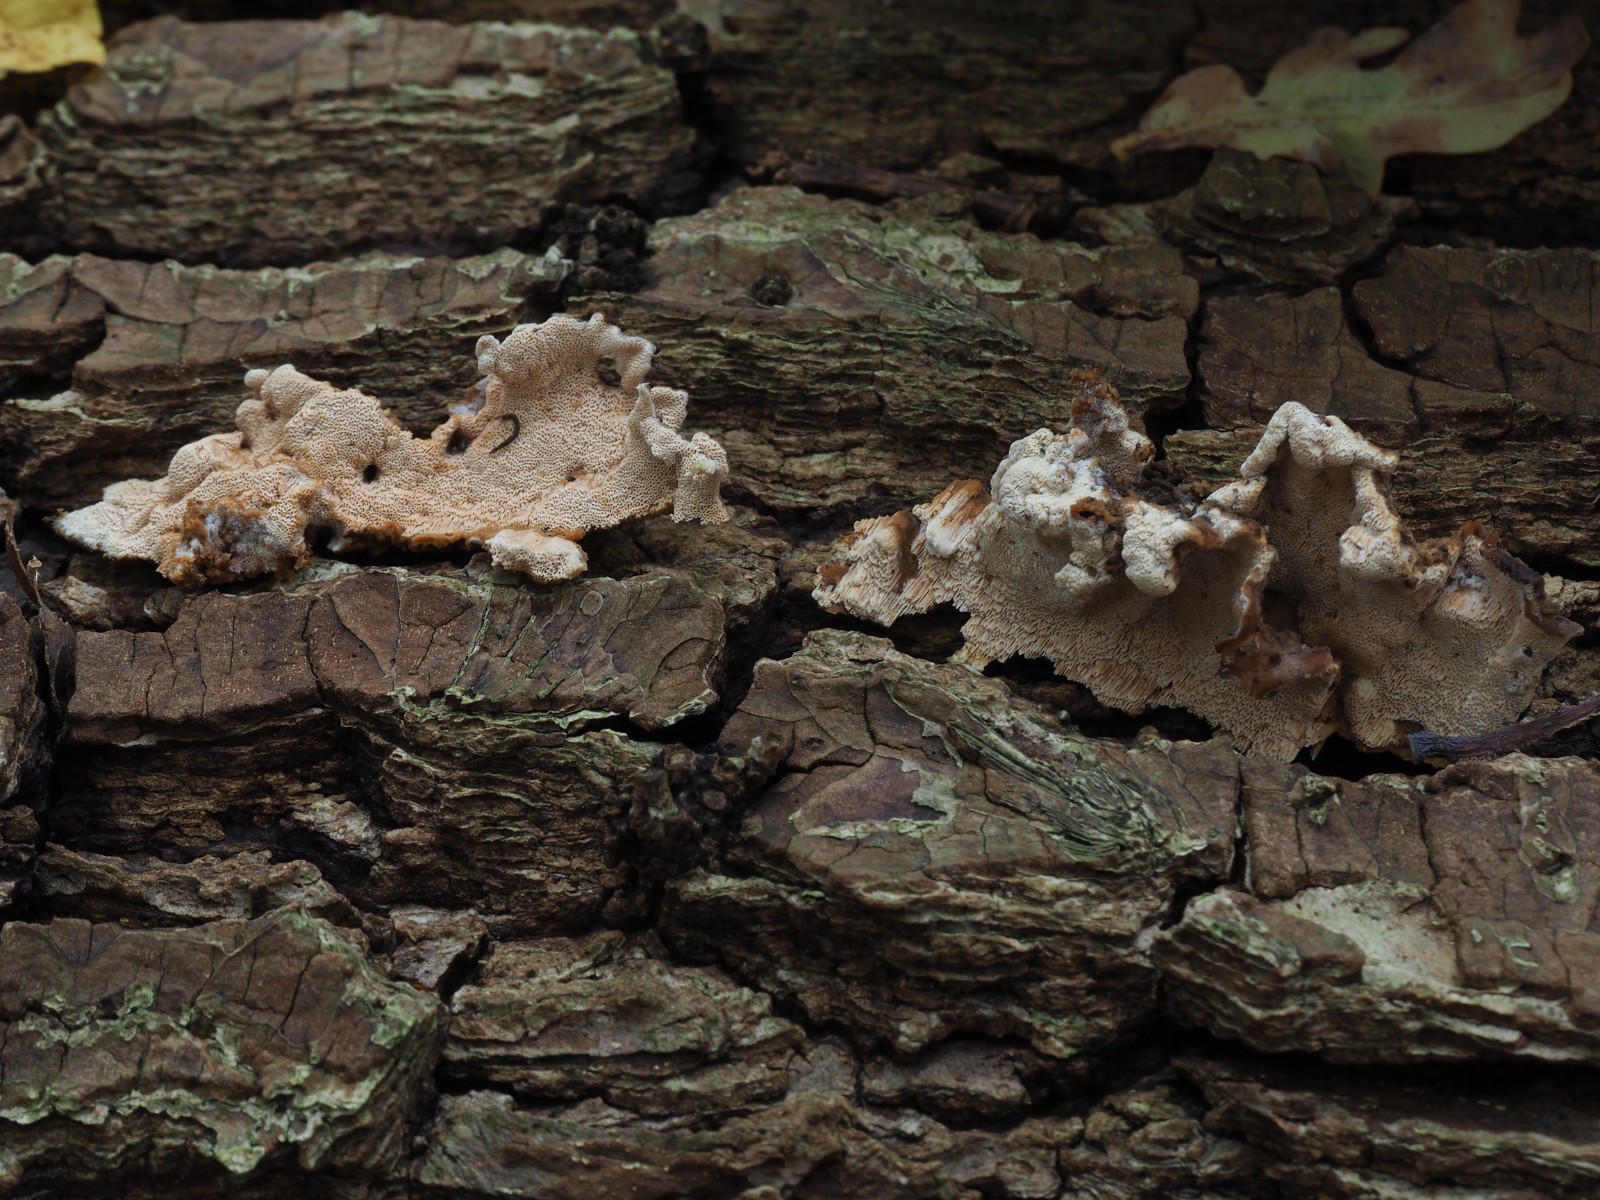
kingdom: Fungi
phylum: Basidiomycota
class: Agaricomycetes
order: Hymenochaetales
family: Schizoporaceae
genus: Xylodon
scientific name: Xylodon flaviporus
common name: gulporet tandsvamp
